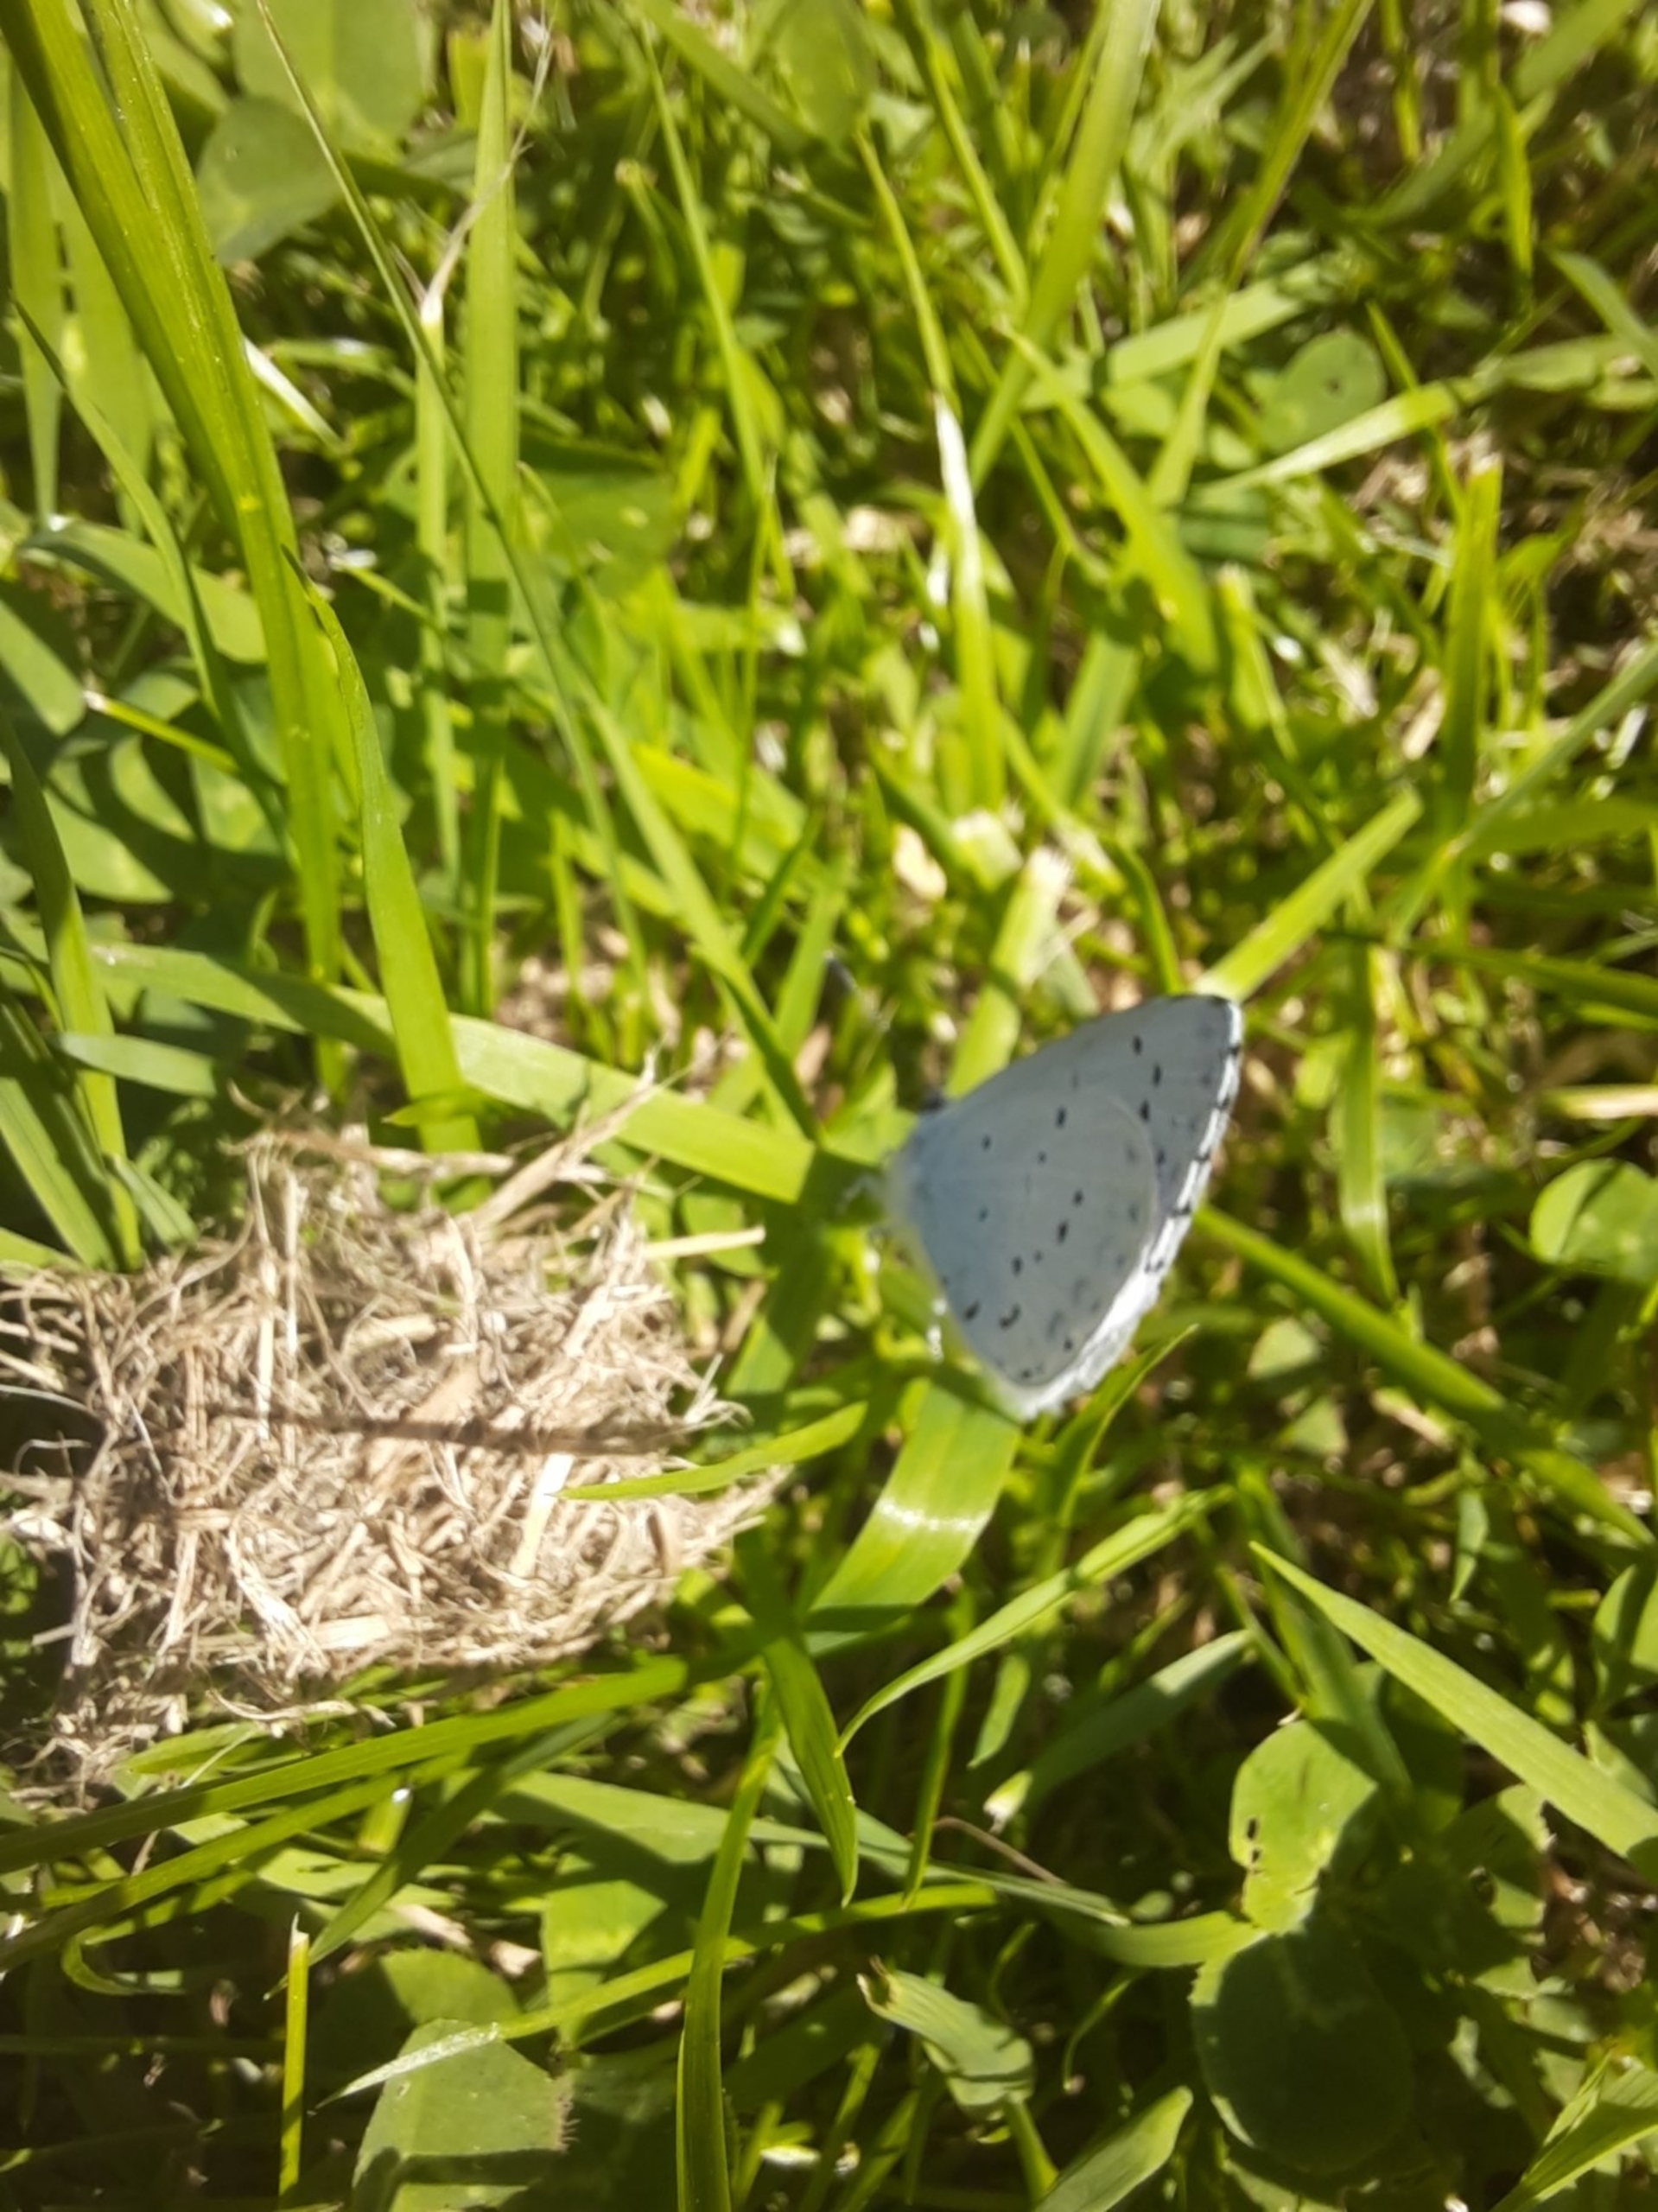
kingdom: Animalia
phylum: Arthropoda
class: Insecta
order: Lepidoptera
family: Lycaenidae
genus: Celastrina
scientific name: Celastrina argiolus
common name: Skovblåfugl
